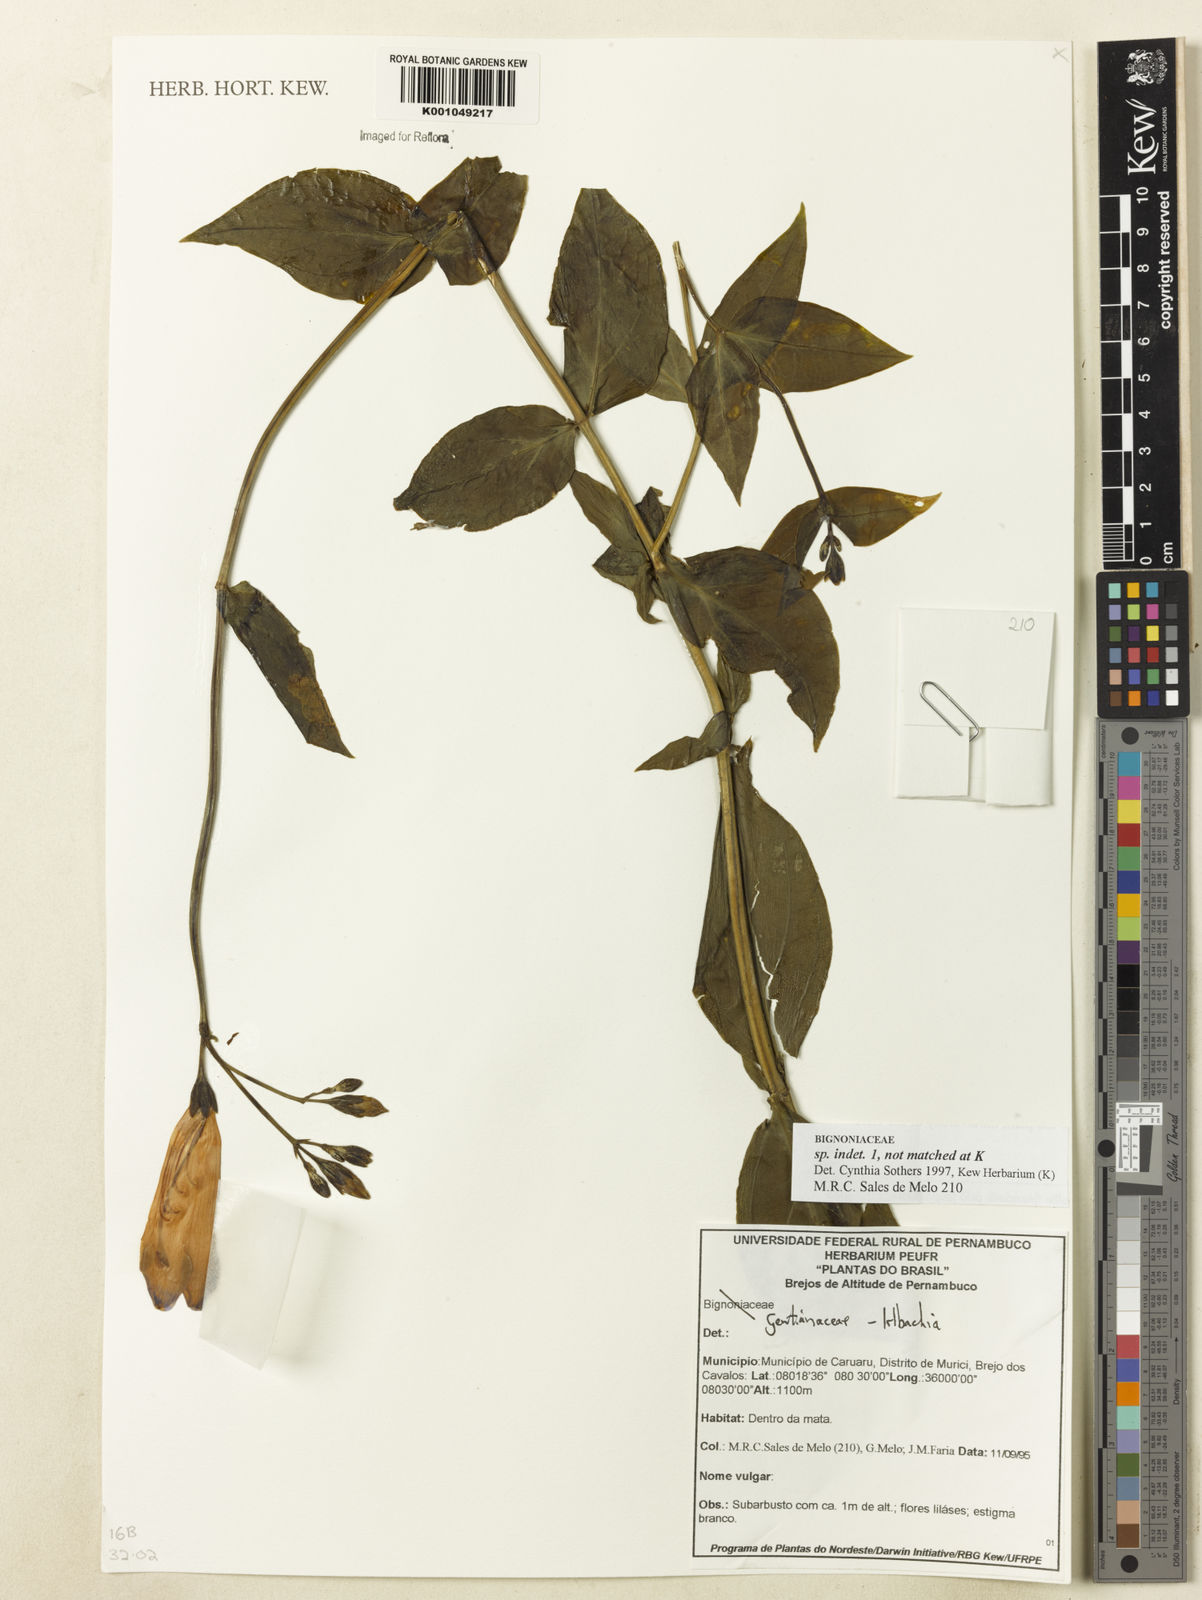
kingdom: Plantae
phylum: Tracheophyta
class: Magnoliopsida
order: Gentianales
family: Gentianaceae
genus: Irlbachia
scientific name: Irlbachia
